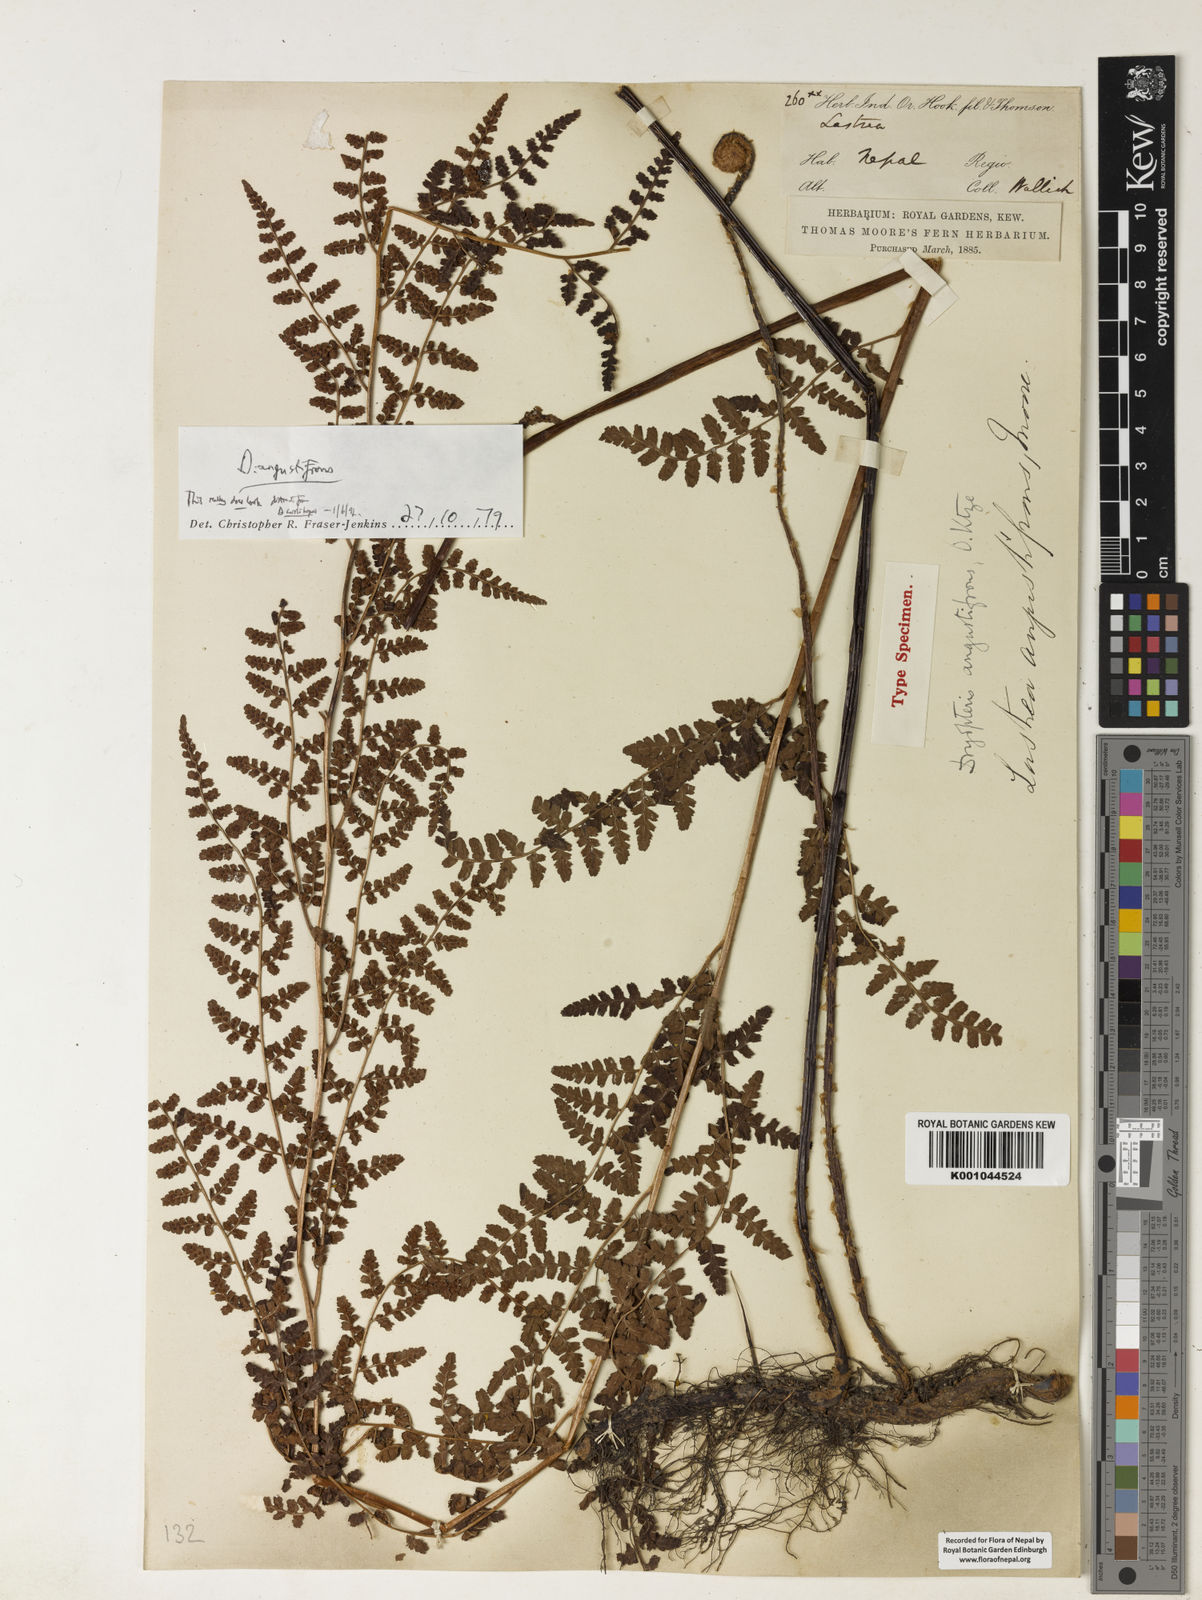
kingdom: Plantae
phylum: Tracheophyta
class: Polypodiopsida
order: Polypodiales
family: Dryopteridaceae
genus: Dryopteris
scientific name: Dryopteris
